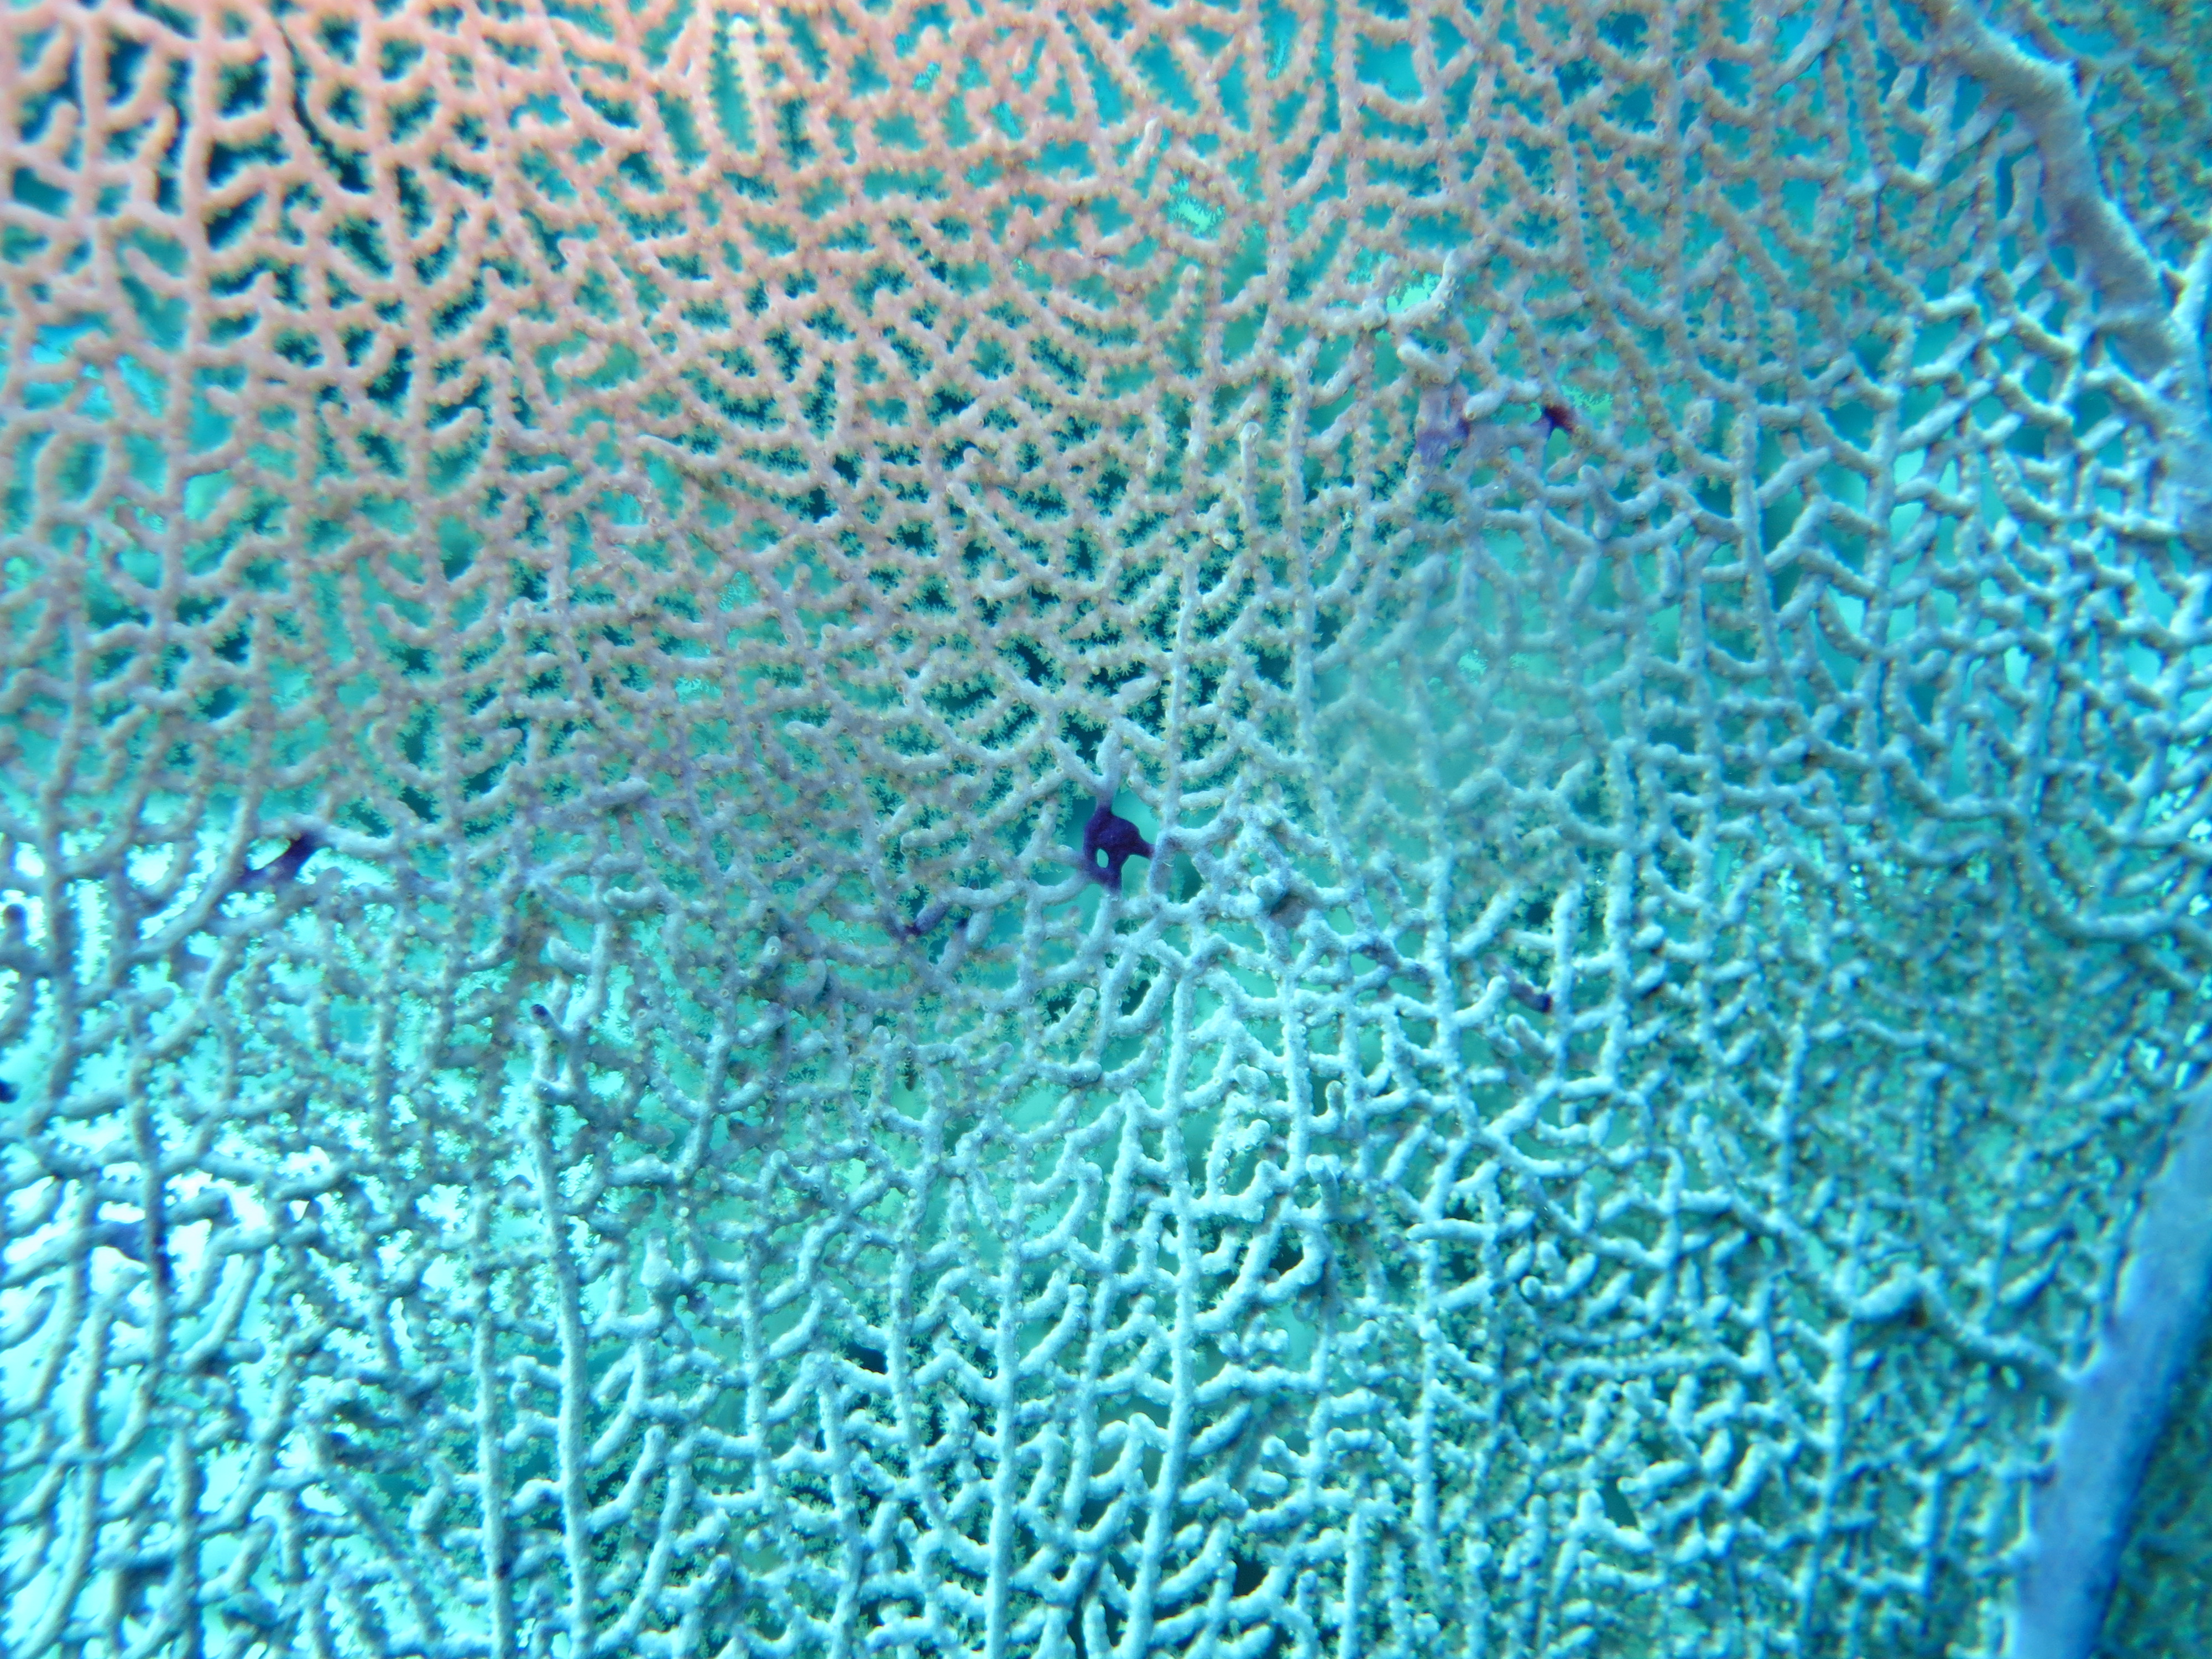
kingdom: Animalia
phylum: Cnidaria
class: Anthozoa
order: Malacalcyonacea
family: Gorgoniidae
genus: Gorgonia
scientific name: Gorgonia ventalina
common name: Common sea fan
